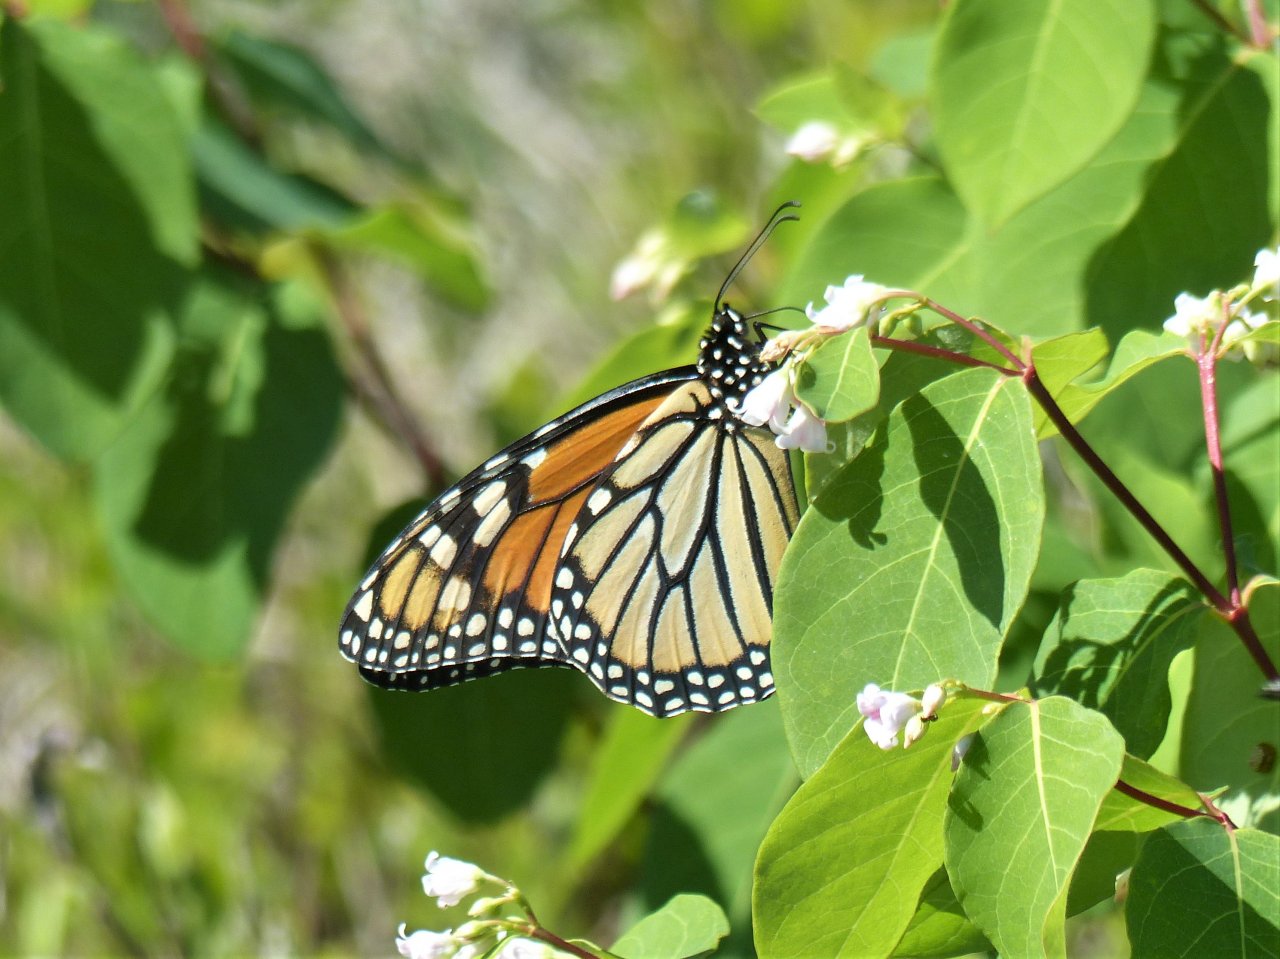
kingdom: Animalia
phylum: Arthropoda
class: Insecta
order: Lepidoptera
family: Nymphalidae
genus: Danaus
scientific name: Danaus plexippus
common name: Monarch
